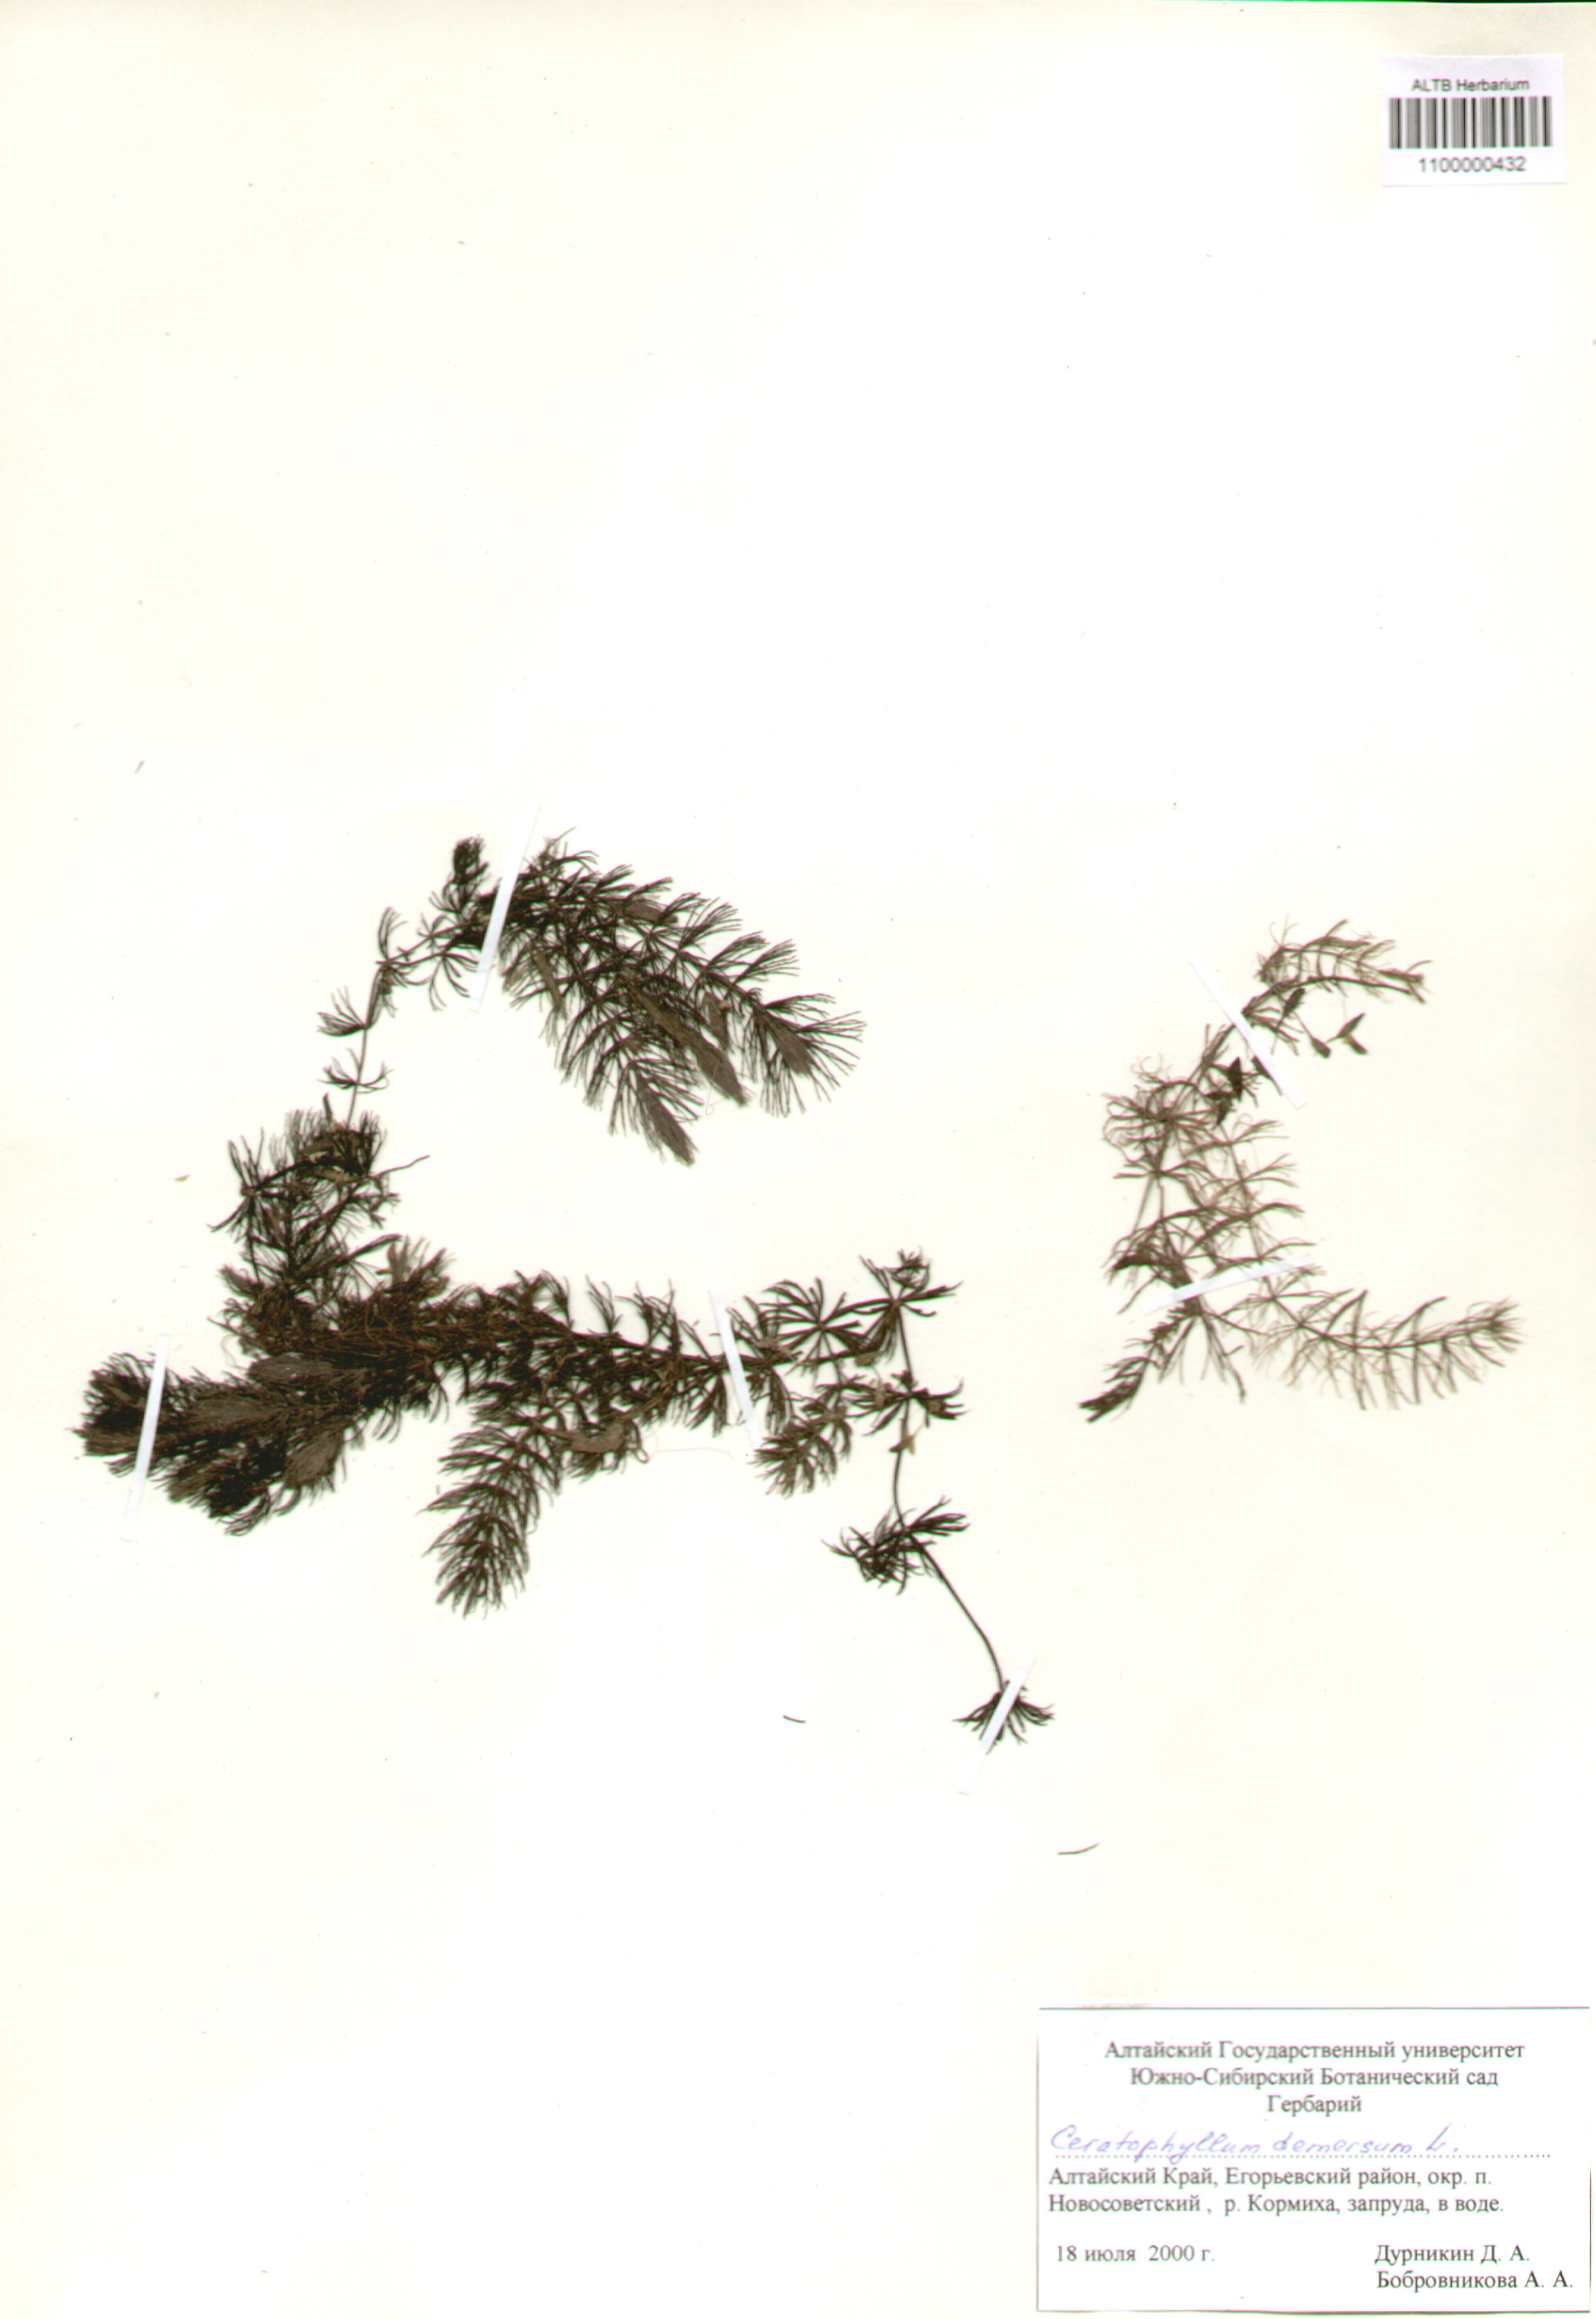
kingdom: Plantae
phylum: Tracheophyta
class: Magnoliopsida
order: Ceratophyllales
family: Ceratophyllaceae
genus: Ceratophyllum
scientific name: Ceratophyllum demersum
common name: Rigid hornwort
